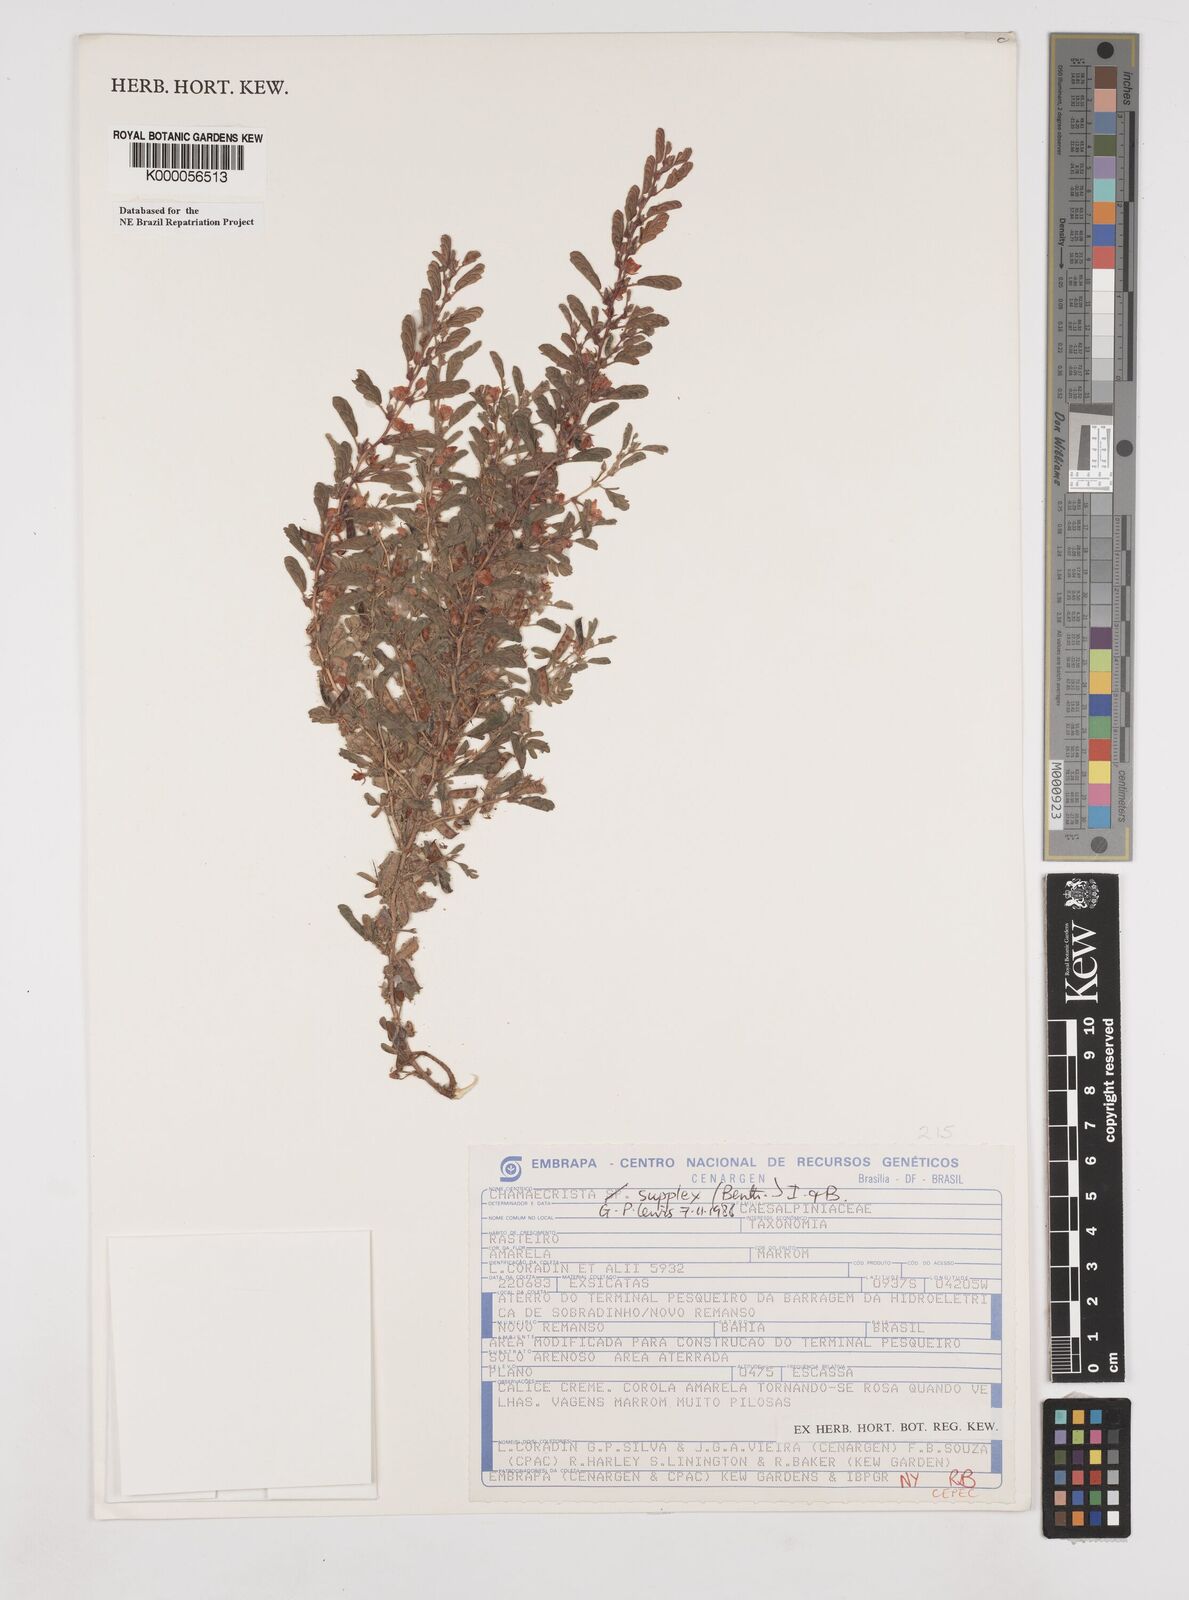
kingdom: Plantae
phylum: Tracheophyta
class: Magnoliopsida
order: Fabales
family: Fabaceae
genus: Chamaecrista
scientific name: Chamaecrista supplex
